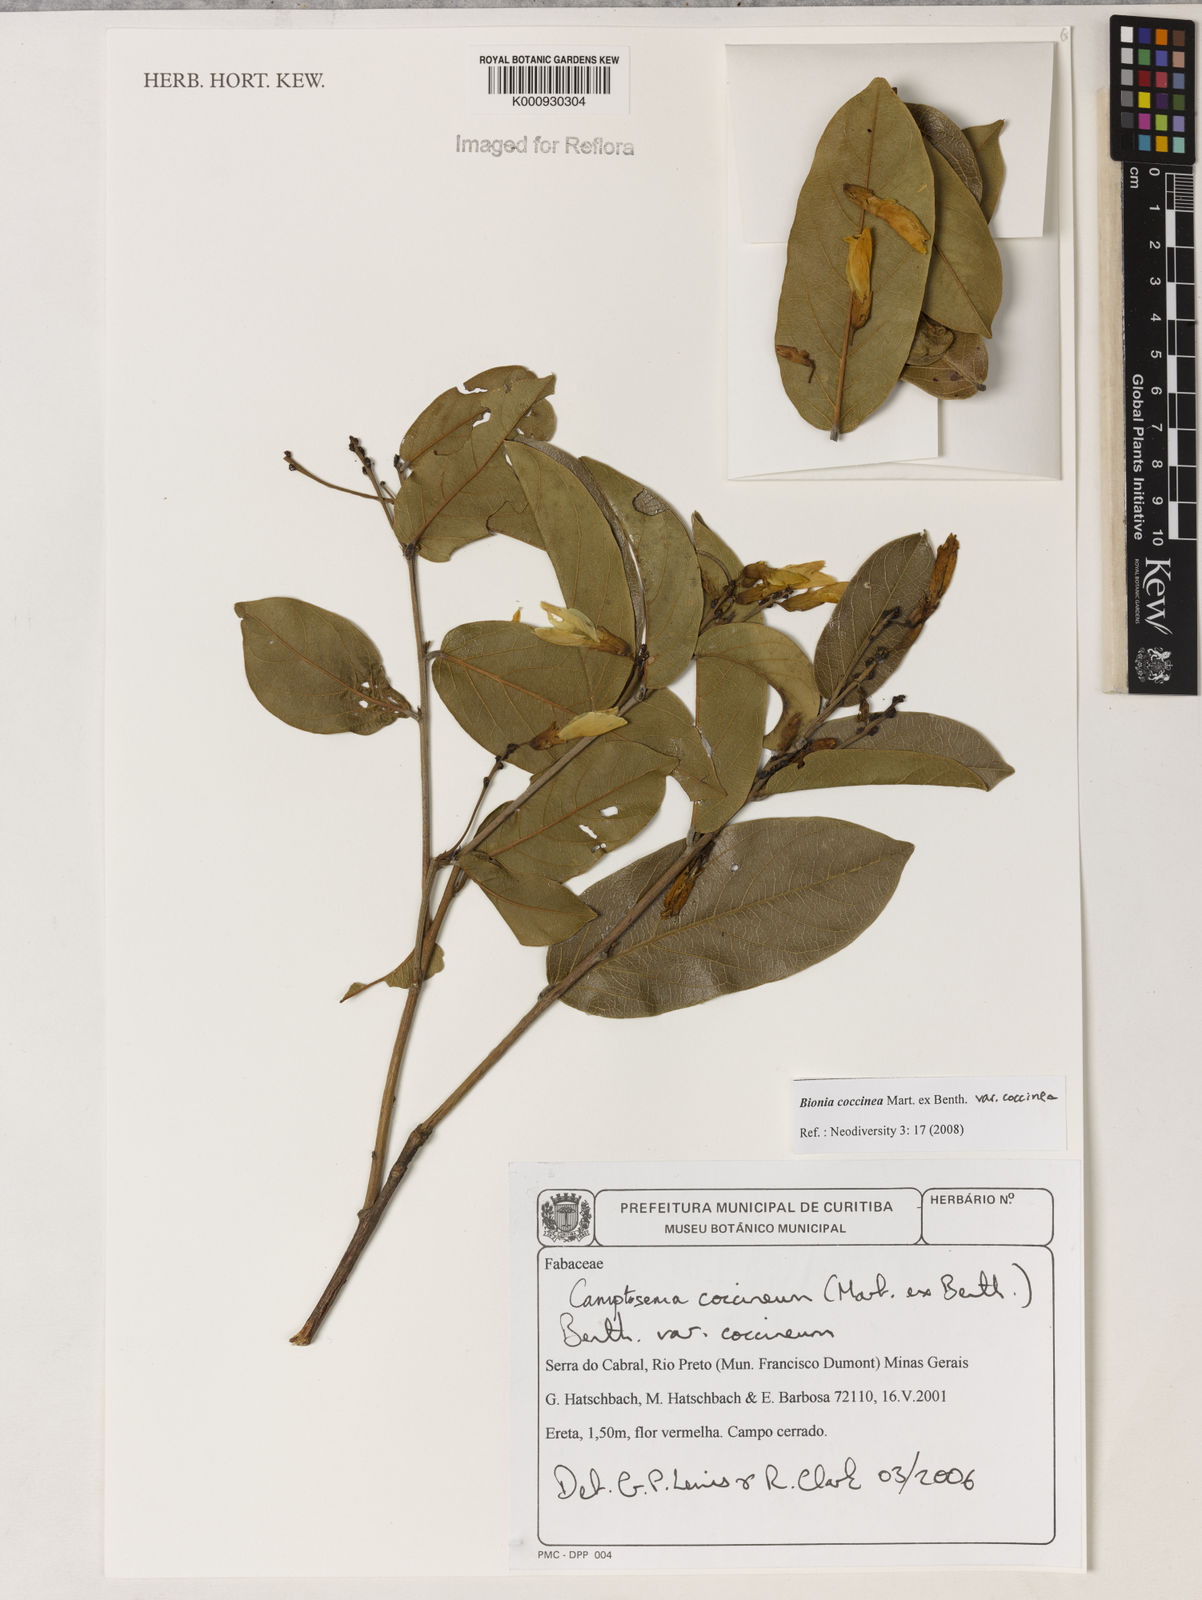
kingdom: Plantae
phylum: Tracheophyta
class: Magnoliopsida
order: Fabales
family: Fabaceae
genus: Camptosema
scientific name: Camptosema coccineum
